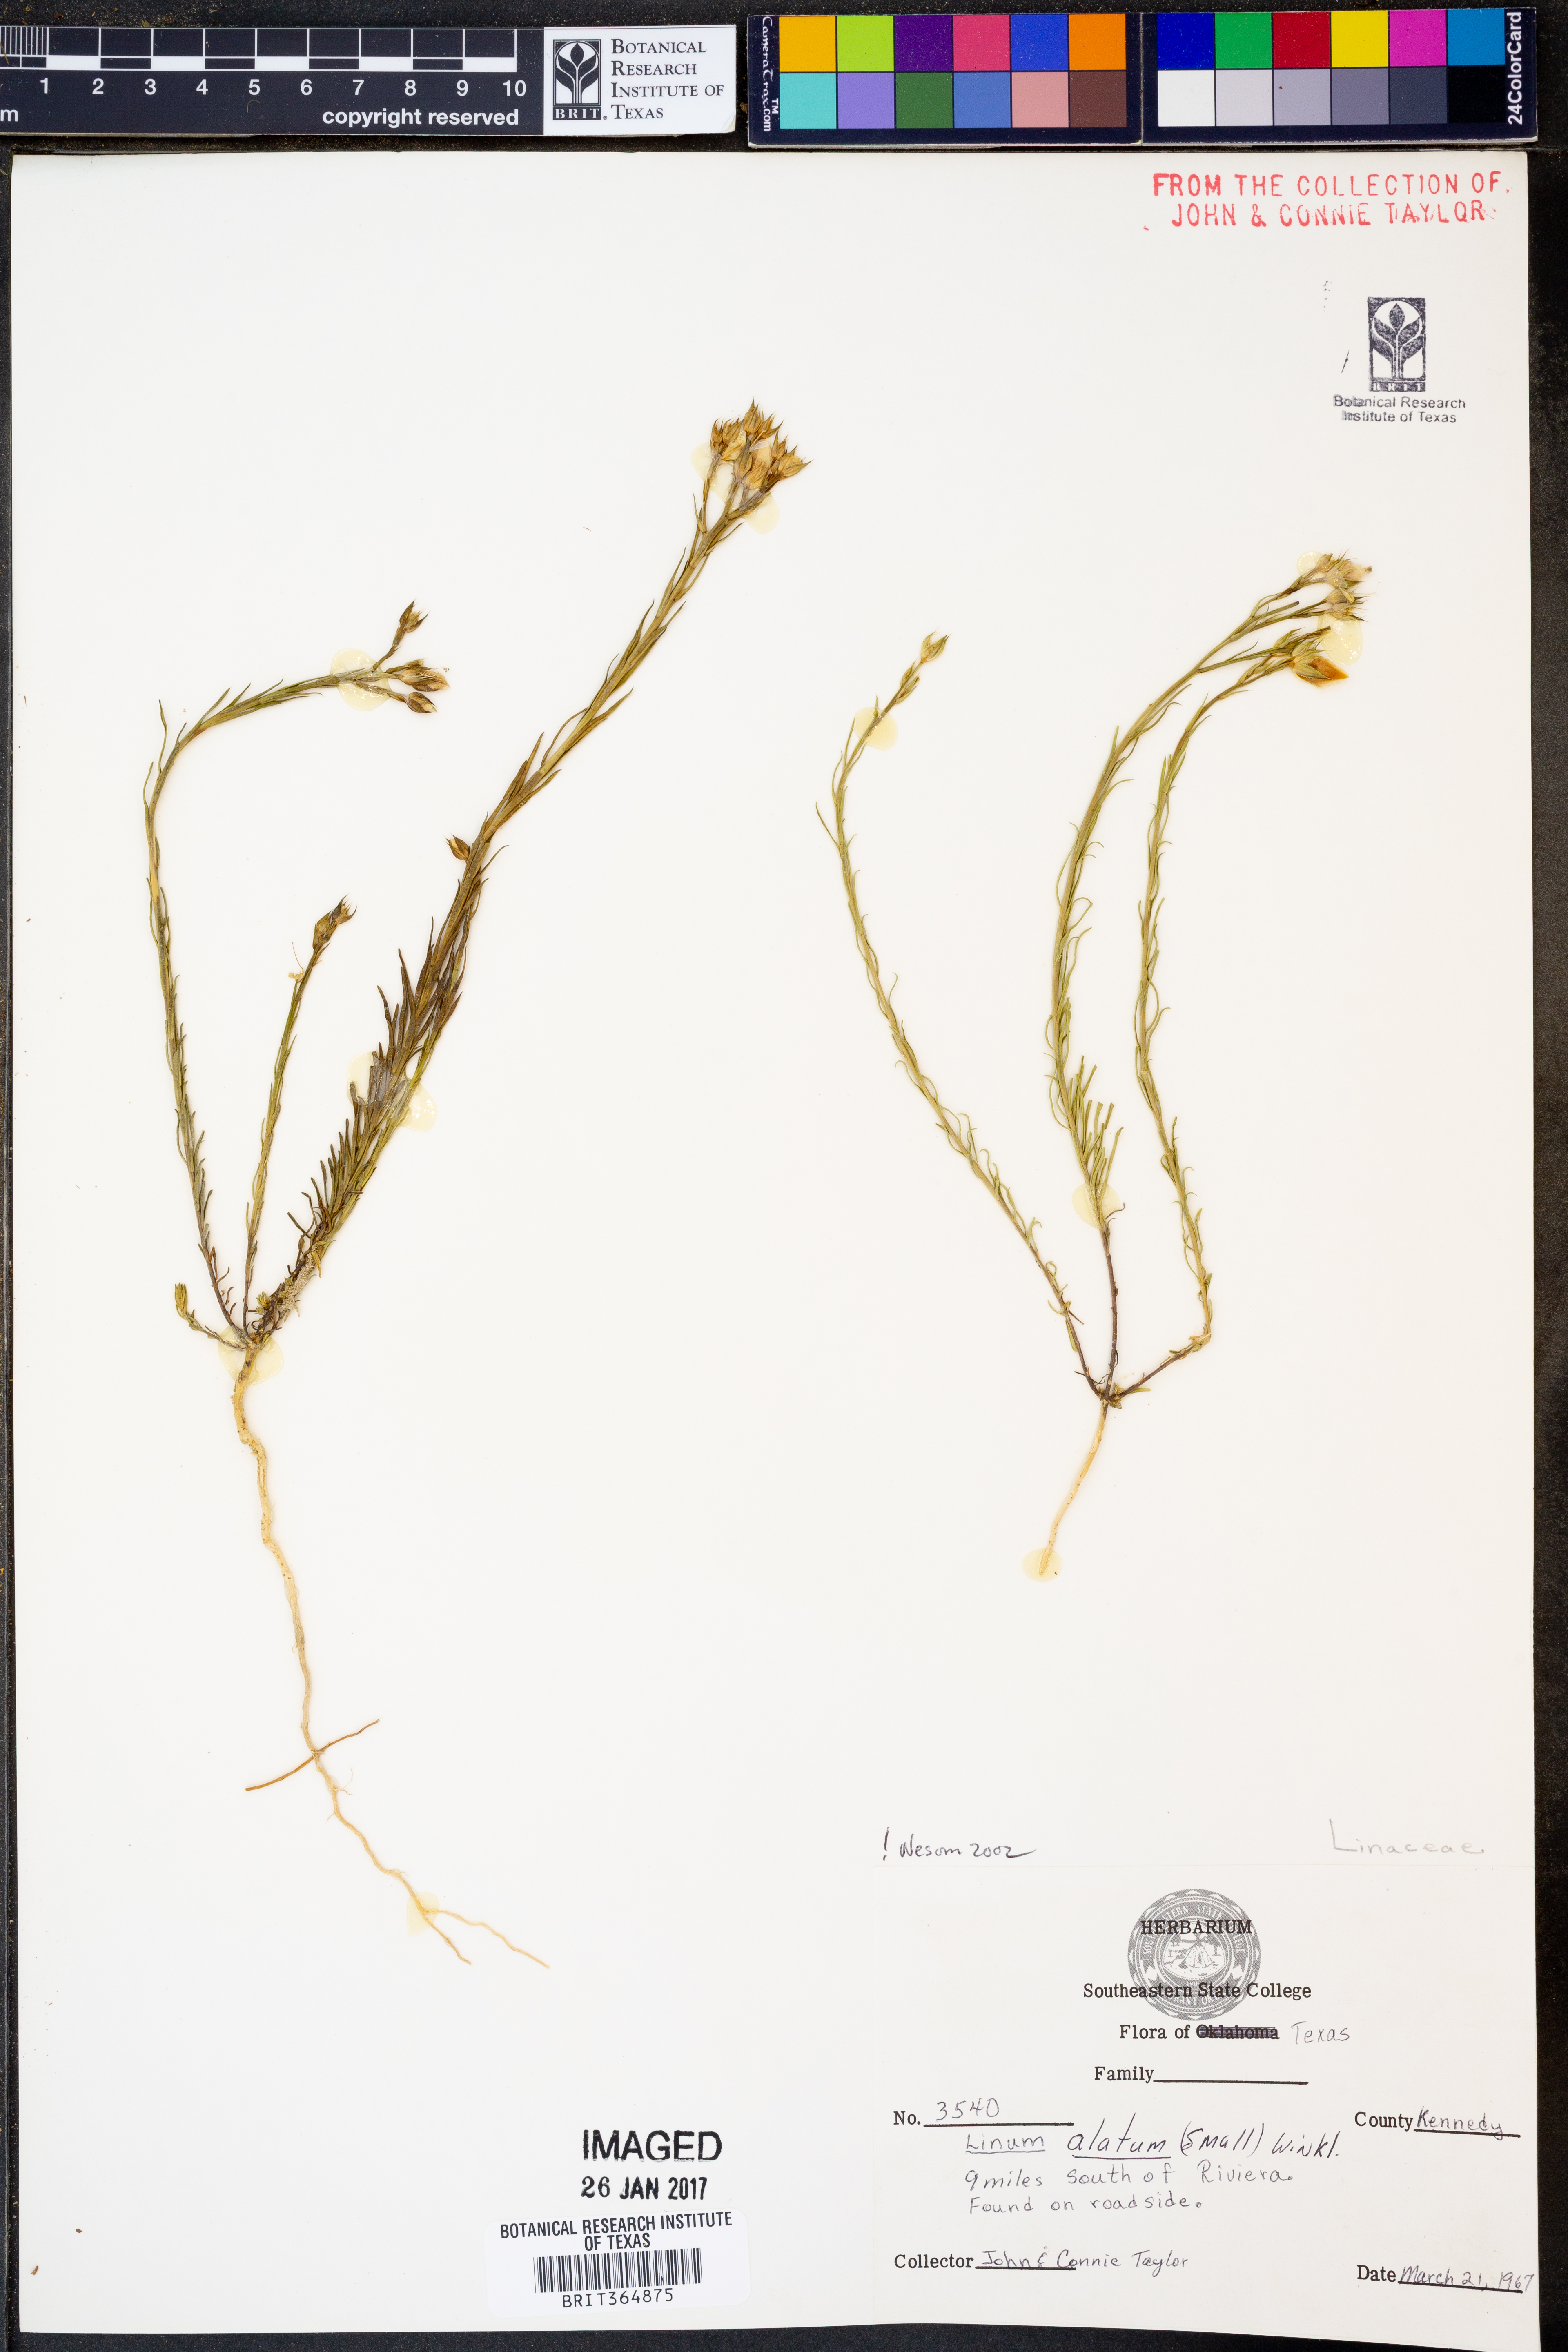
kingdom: Plantae
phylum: Tracheophyta
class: Magnoliopsida
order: Malpighiales
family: Linaceae
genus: Linum
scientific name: Linum alatum
